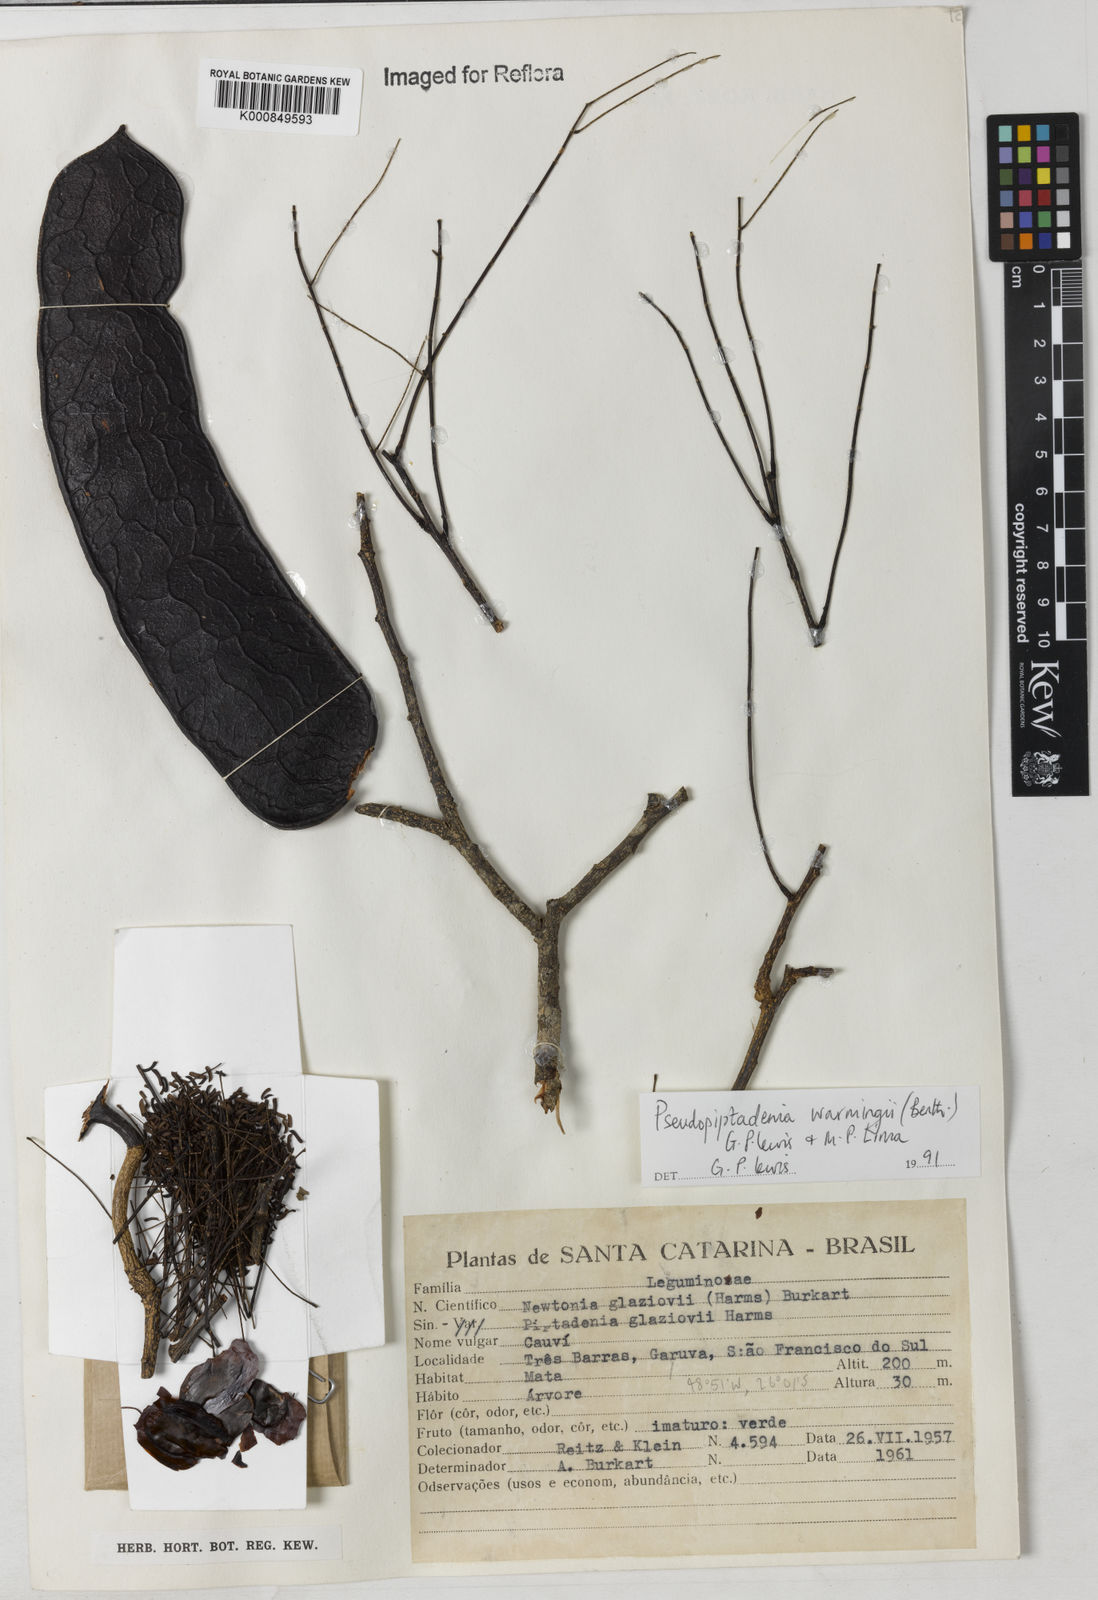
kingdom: Plantae
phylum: Tracheophyta
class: Magnoliopsida
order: Fabales
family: Fabaceae
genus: Pseudopiptadenia
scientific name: Pseudopiptadenia warmingii
